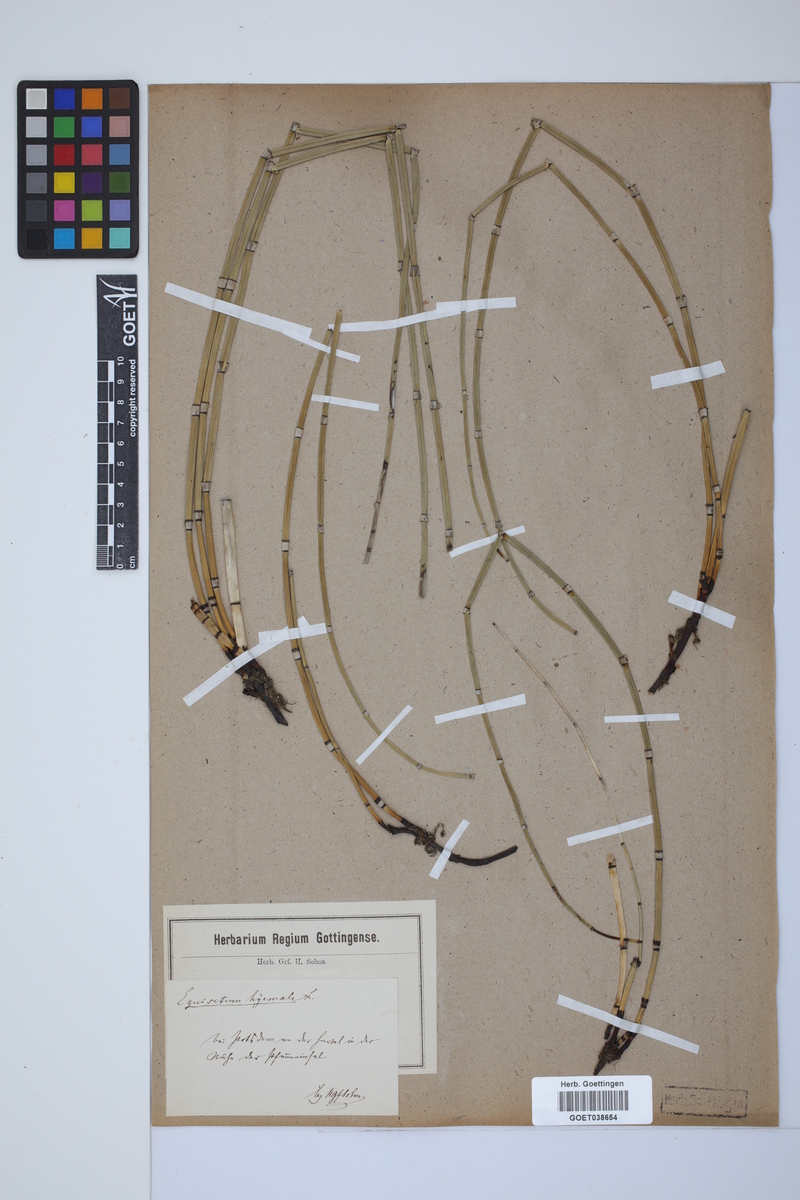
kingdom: Plantae
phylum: Tracheophyta
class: Polypodiopsida
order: Equisetales
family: Equisetaceae
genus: Equisetum
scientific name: Equisetum hyemale
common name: Rough horsetail
